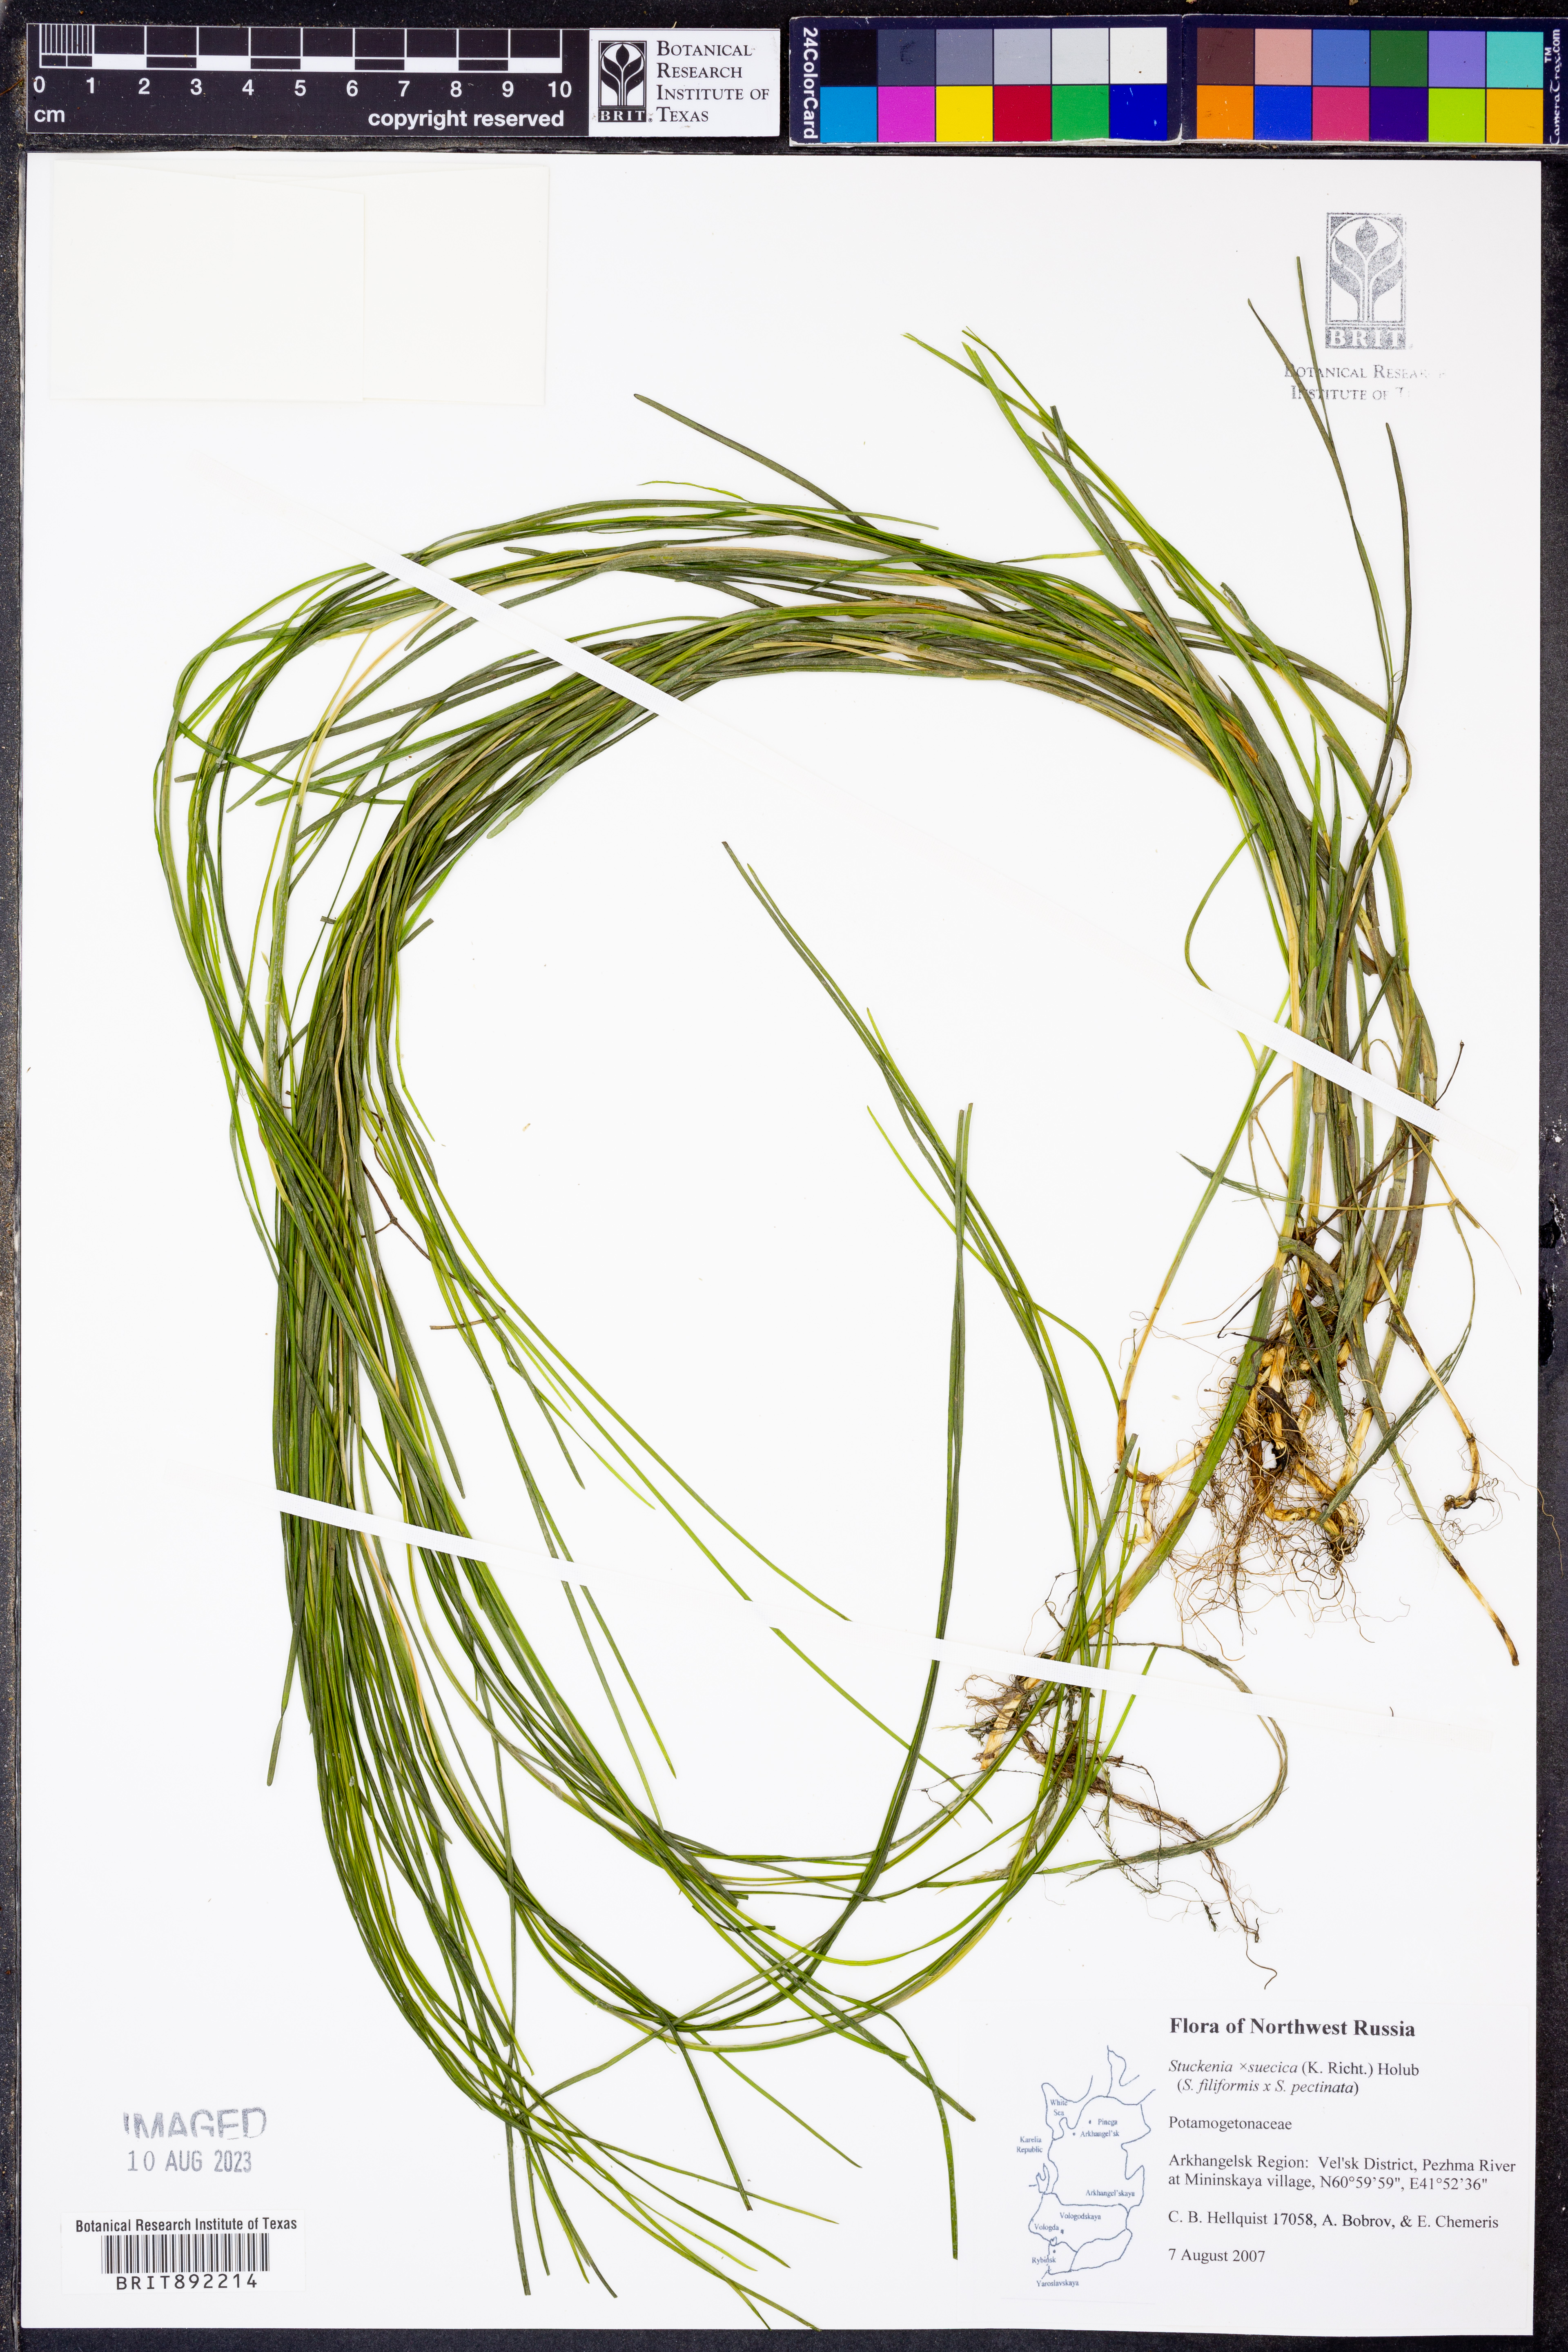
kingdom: Plantae
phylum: Tracheophyta
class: Liliopsida
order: Alismatales
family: Potamogetonaceae
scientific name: Potamogetonaceae
